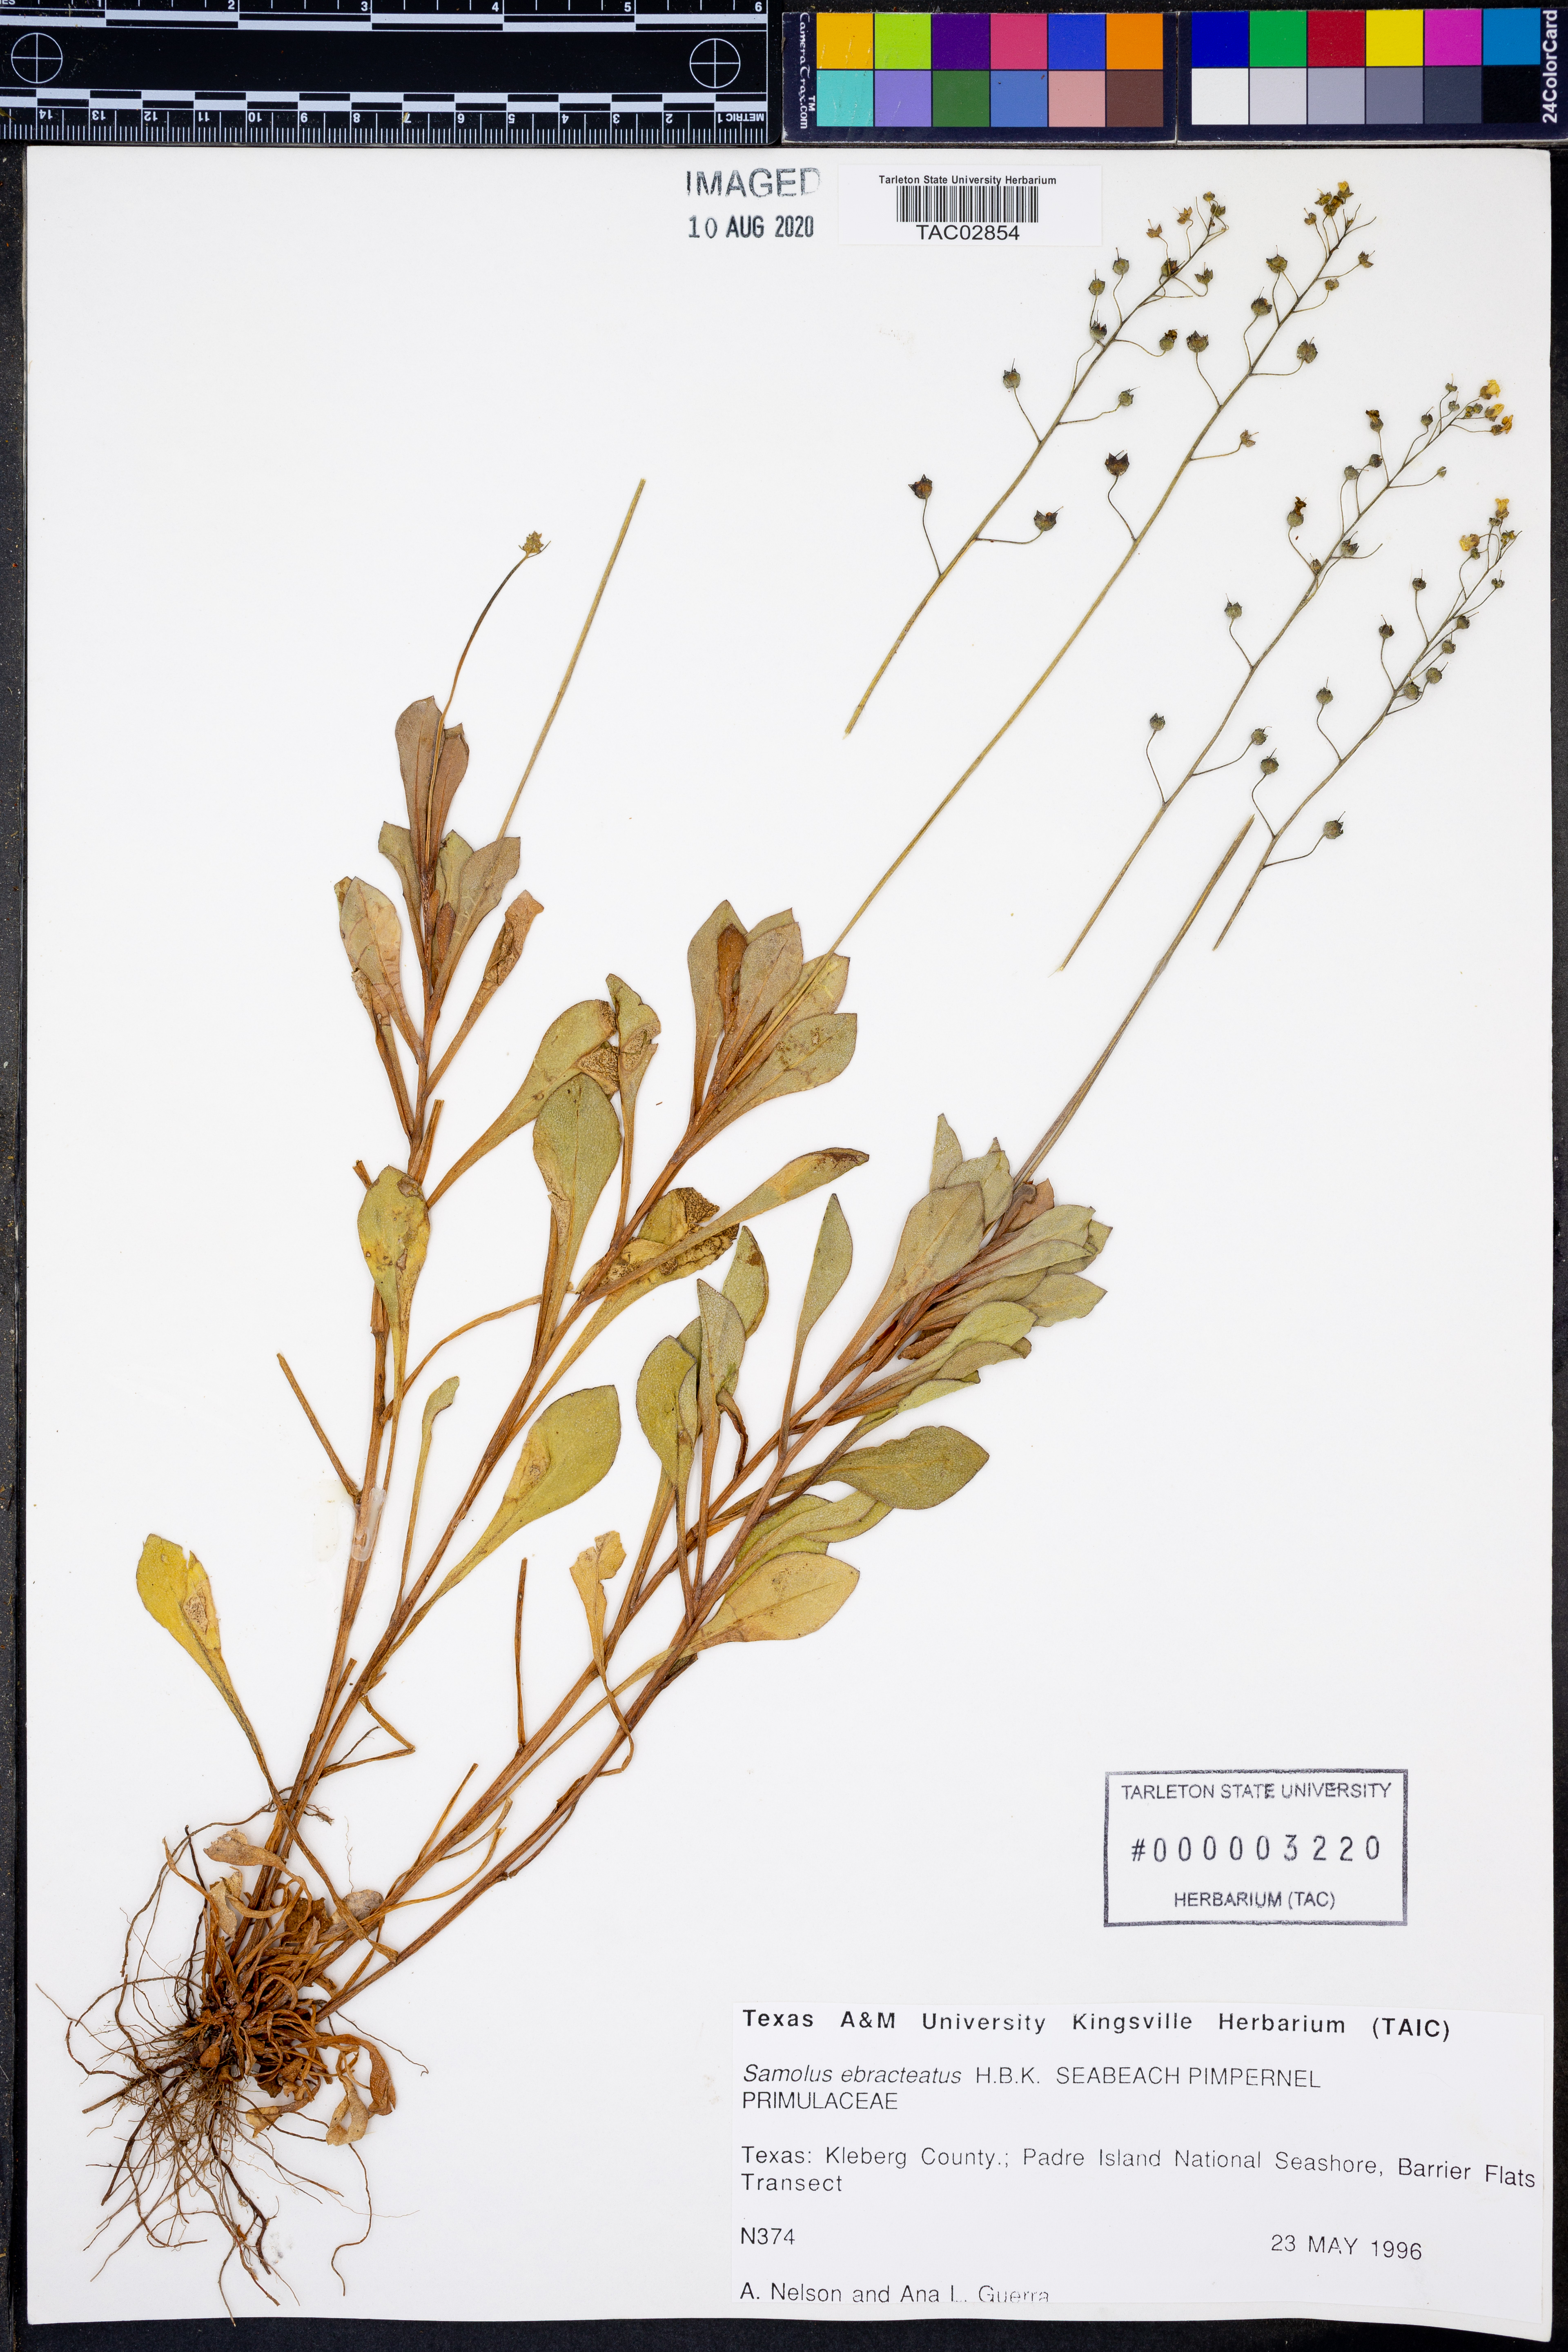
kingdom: Plantae
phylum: Tracheophyta
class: Magnoliopsida
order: Ericales
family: Primulaceae
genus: Samolus
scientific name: Samolus ebracteatus
